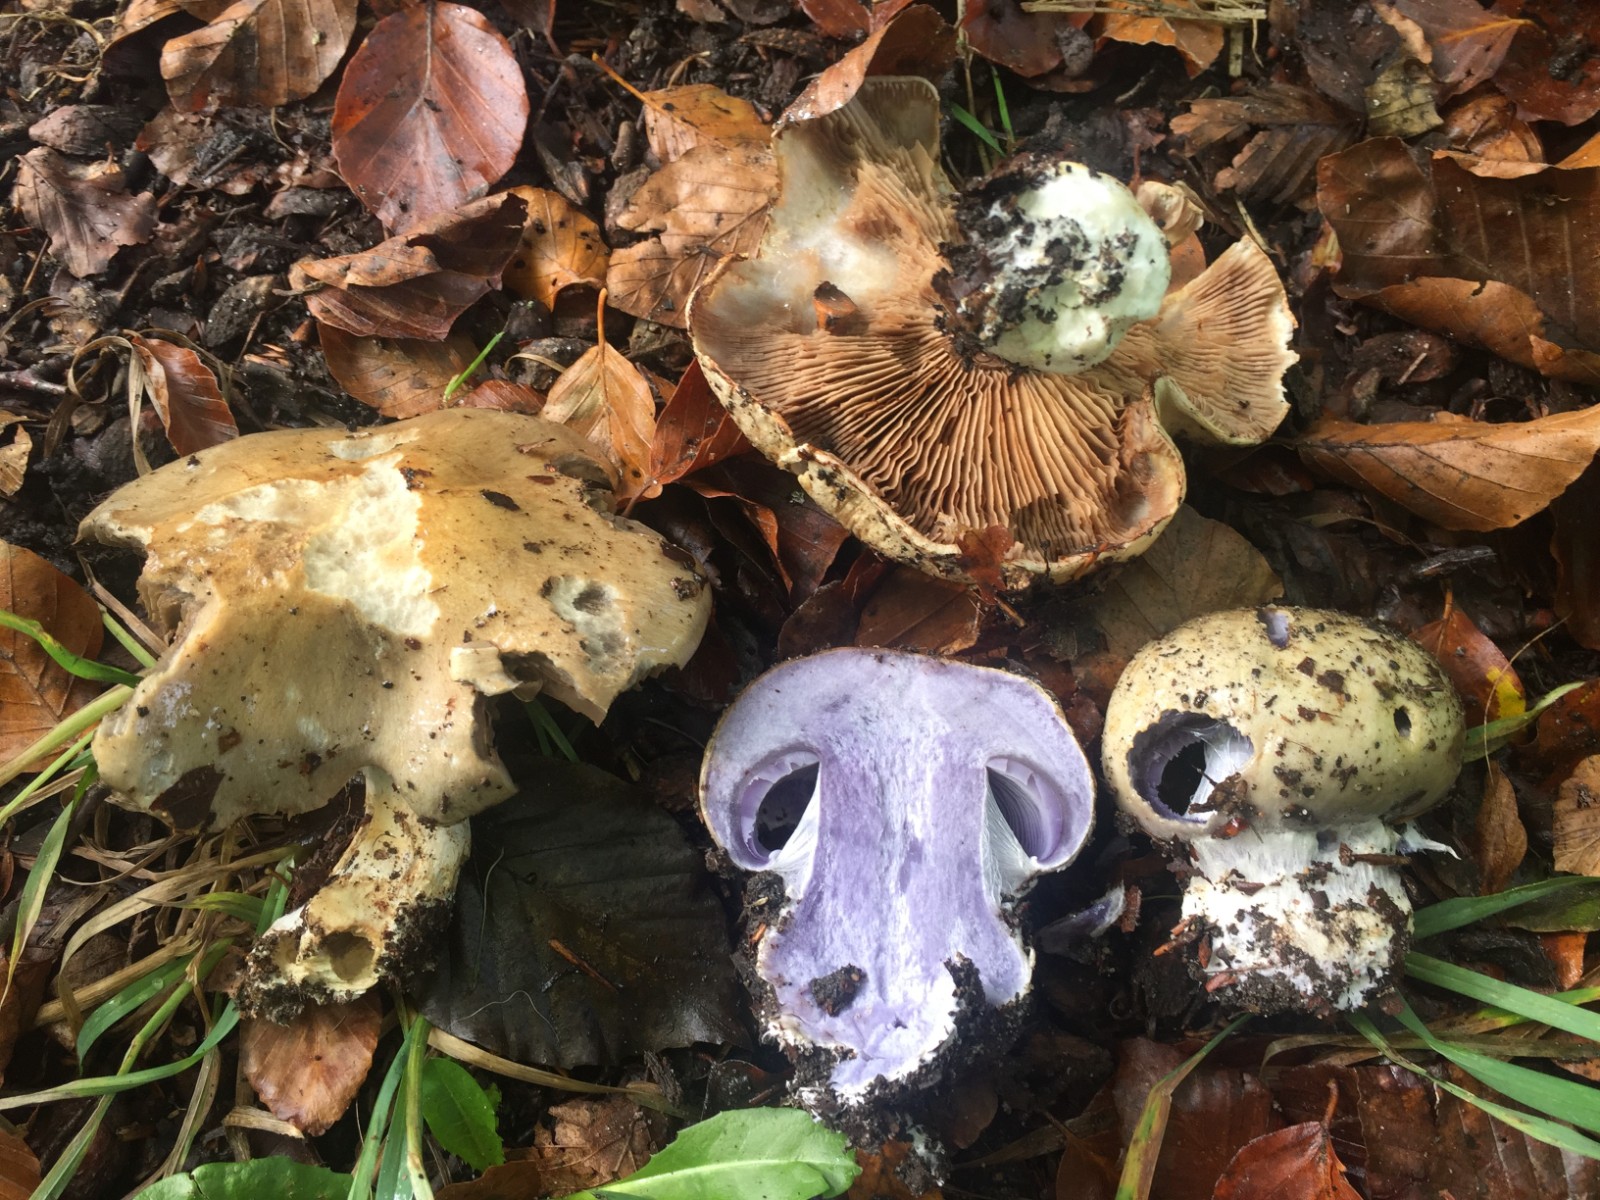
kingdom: Fungi
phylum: Basidiomycota
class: Agaricomycetes
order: Agaricales
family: Cortinariaceae
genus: Cortinarius
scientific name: Cortinarius anserinus
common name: bøge-slørhat
